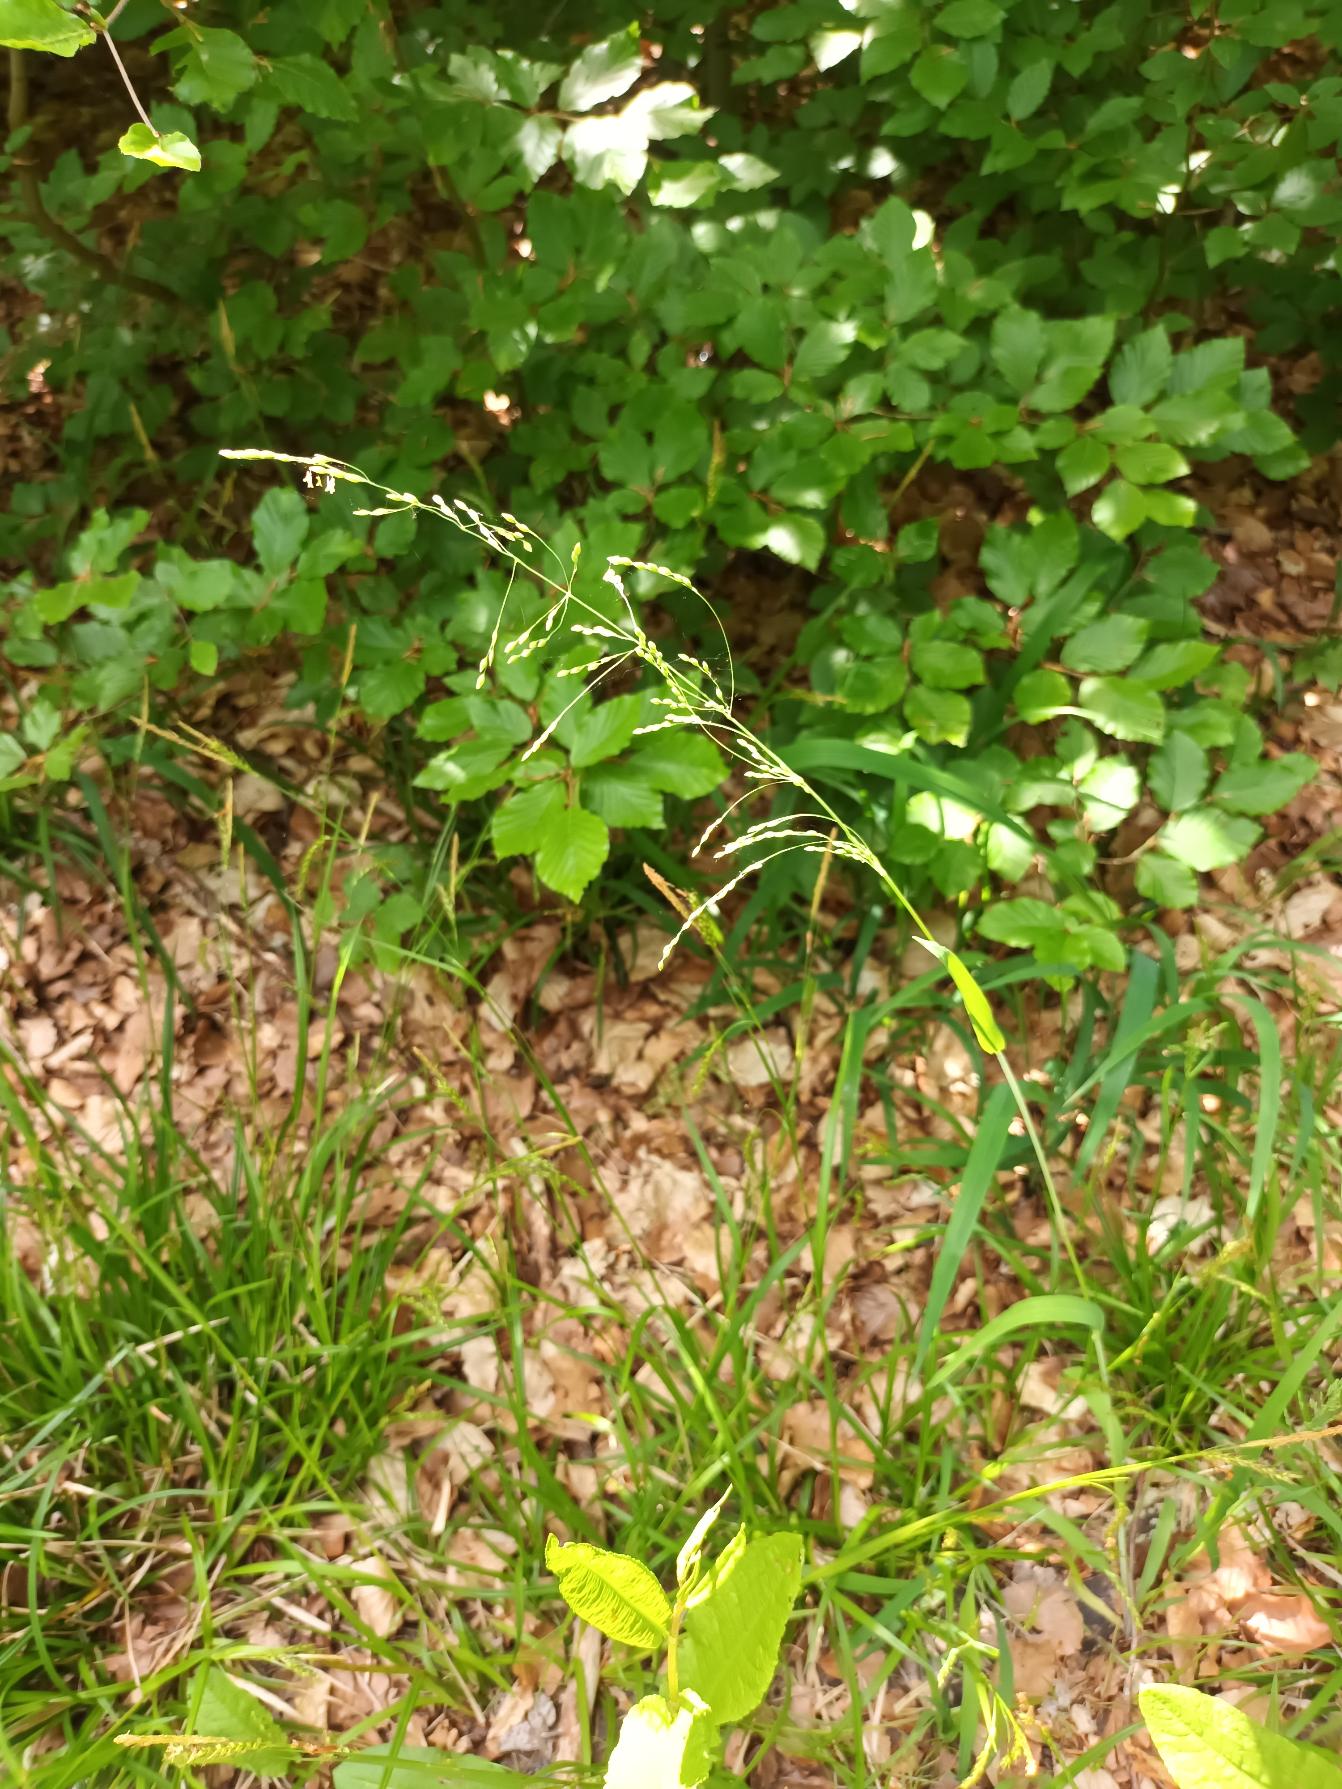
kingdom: Plantae
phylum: Tracheophyta
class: Liliopsida
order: Poales
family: Poaceae
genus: Milium
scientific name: Milium effusum
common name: Miliegræs
